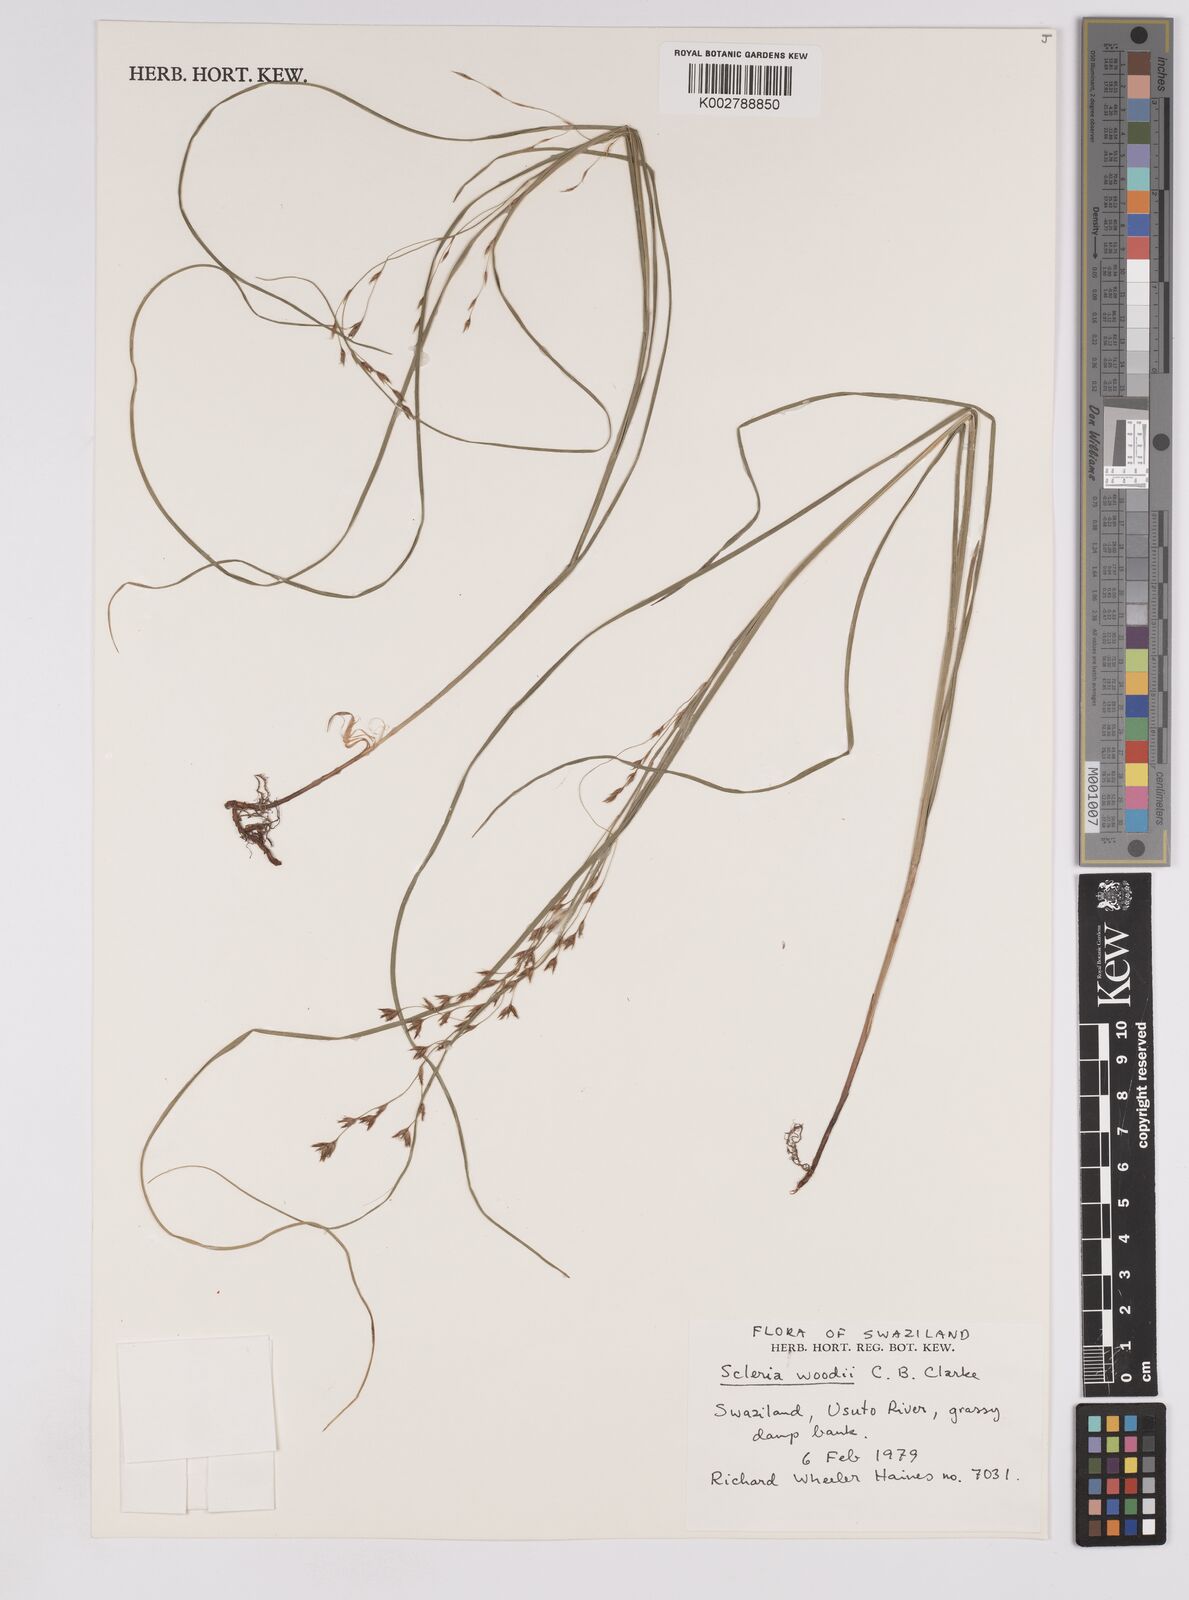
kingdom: Plantae
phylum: Tracheophyta
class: Liliopsida
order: Poales
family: Cyperaceae
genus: Scleria
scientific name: Scleria woodii
